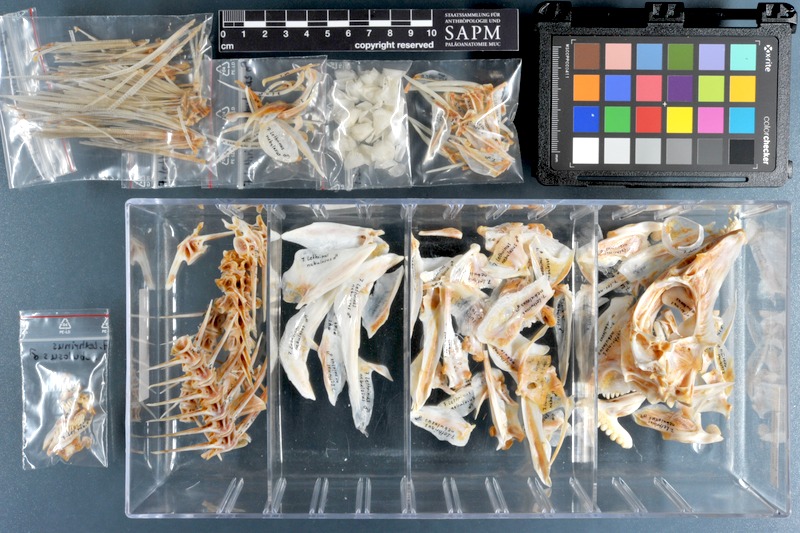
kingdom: Animalia
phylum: Chordata
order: Perciformes
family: Lethrinidae
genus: Lethrinus
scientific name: Lethrinus nebulosus
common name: Spangled emperor
